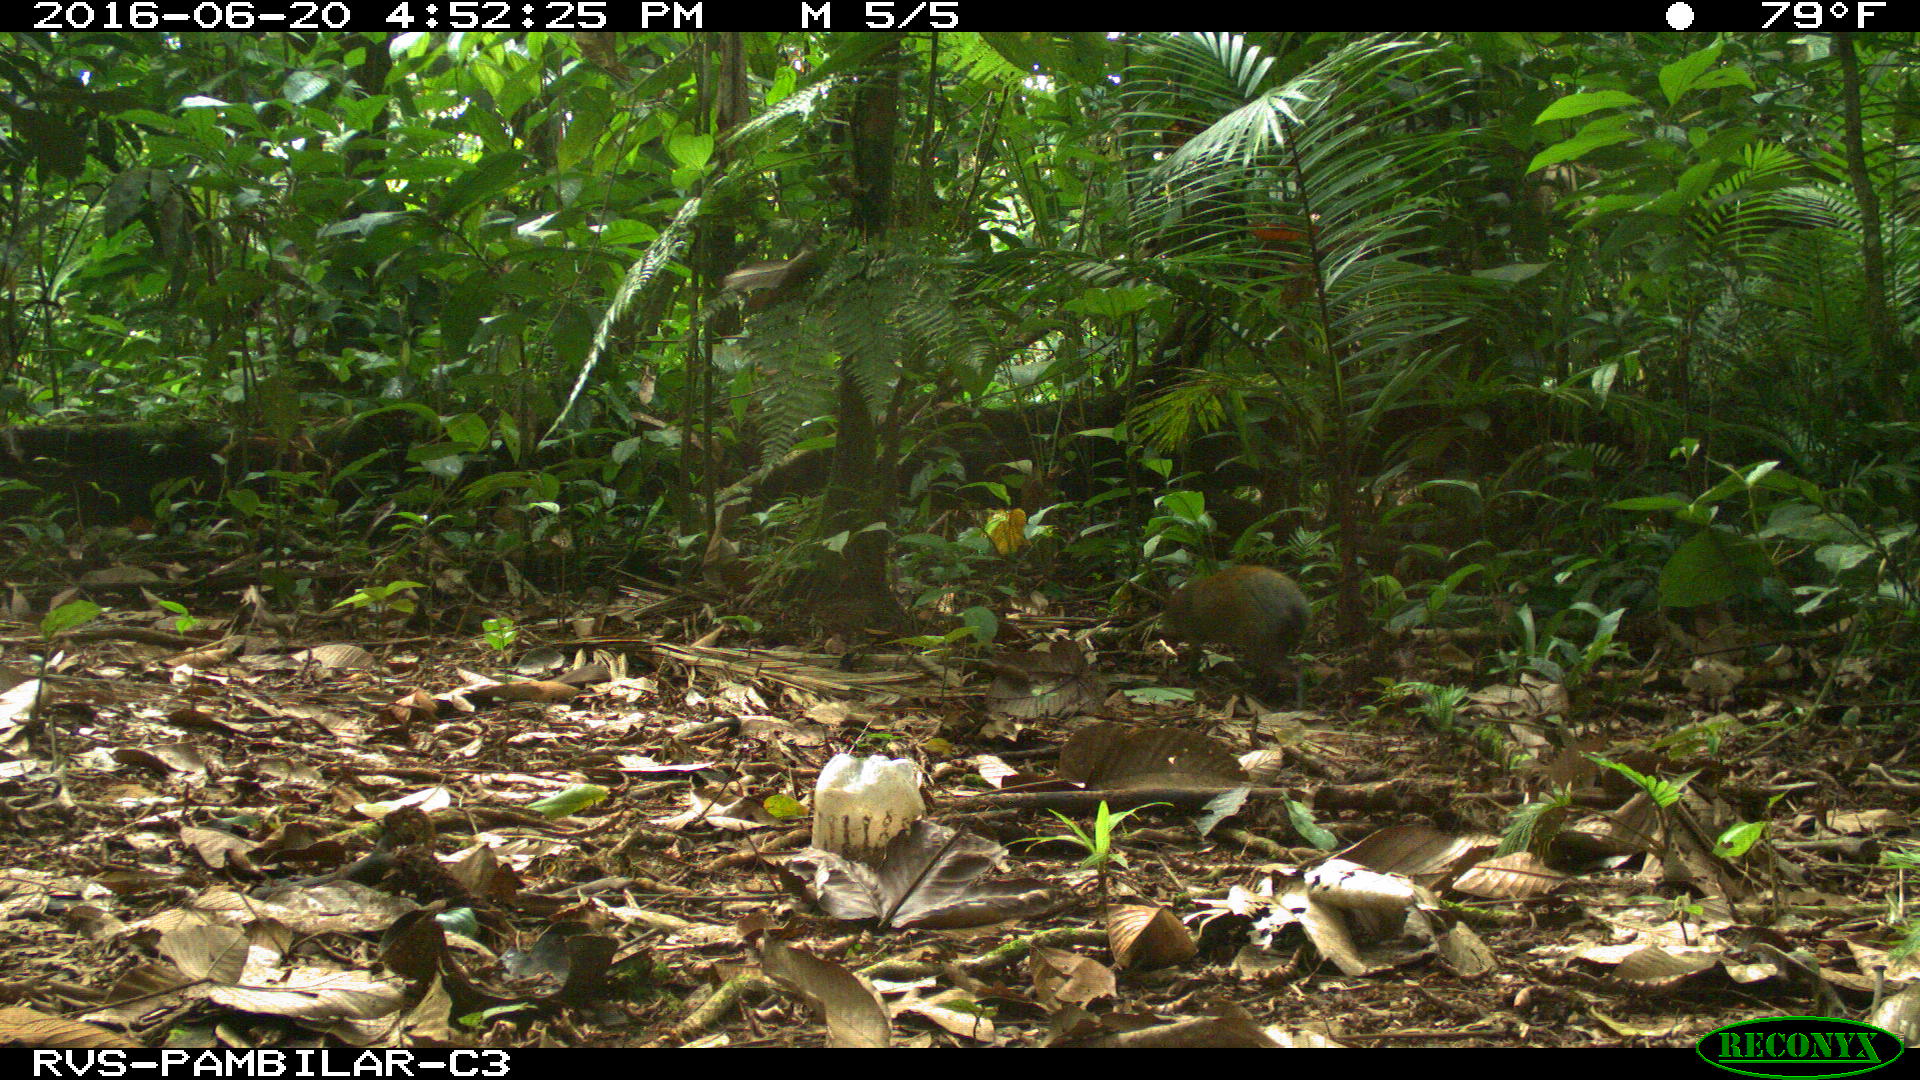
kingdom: Animalia
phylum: Chordata
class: Mammalia
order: Rodentia
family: Dasyproctidae
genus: Dasyprocta
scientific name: Dasyprocta punctata
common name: Central american agouti
